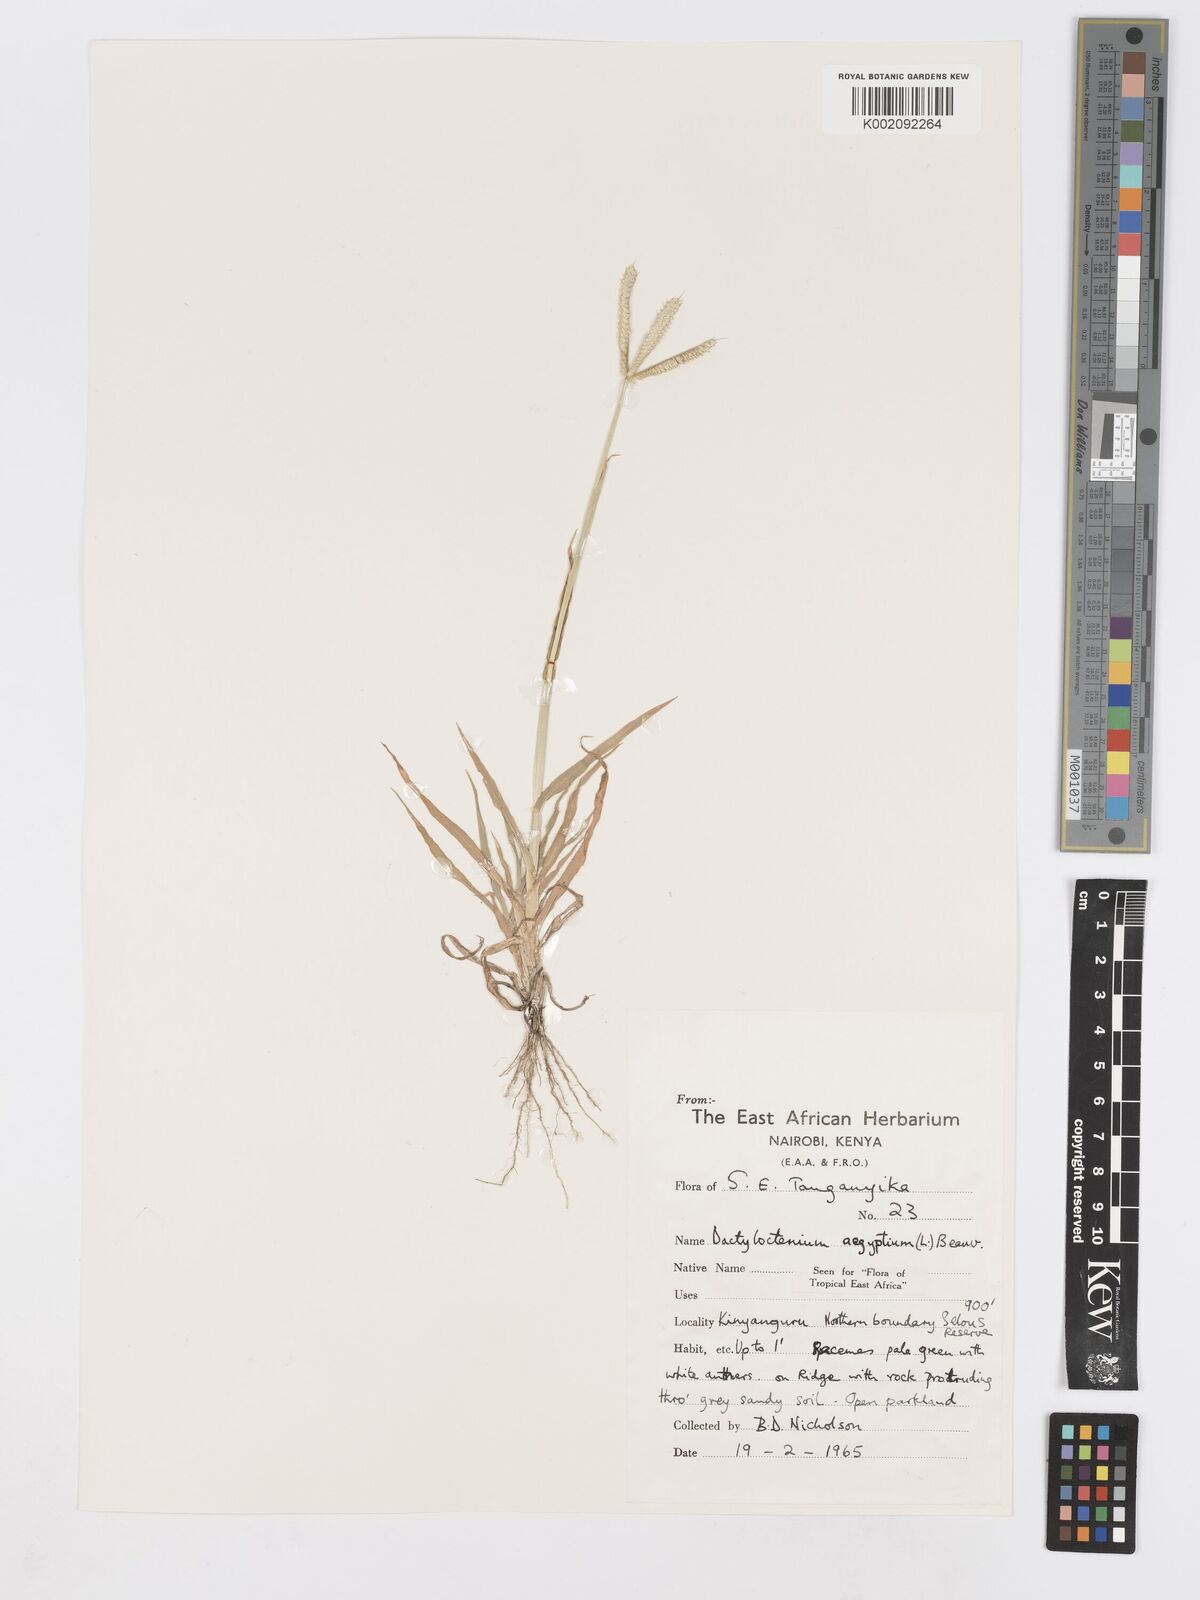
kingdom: Plantae
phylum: Tracheophyta
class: Liliopsida
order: Poales
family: Poaceae
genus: Dactyloctenium
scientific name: Dactyloctenium aegyptium
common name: Egyptian grass
